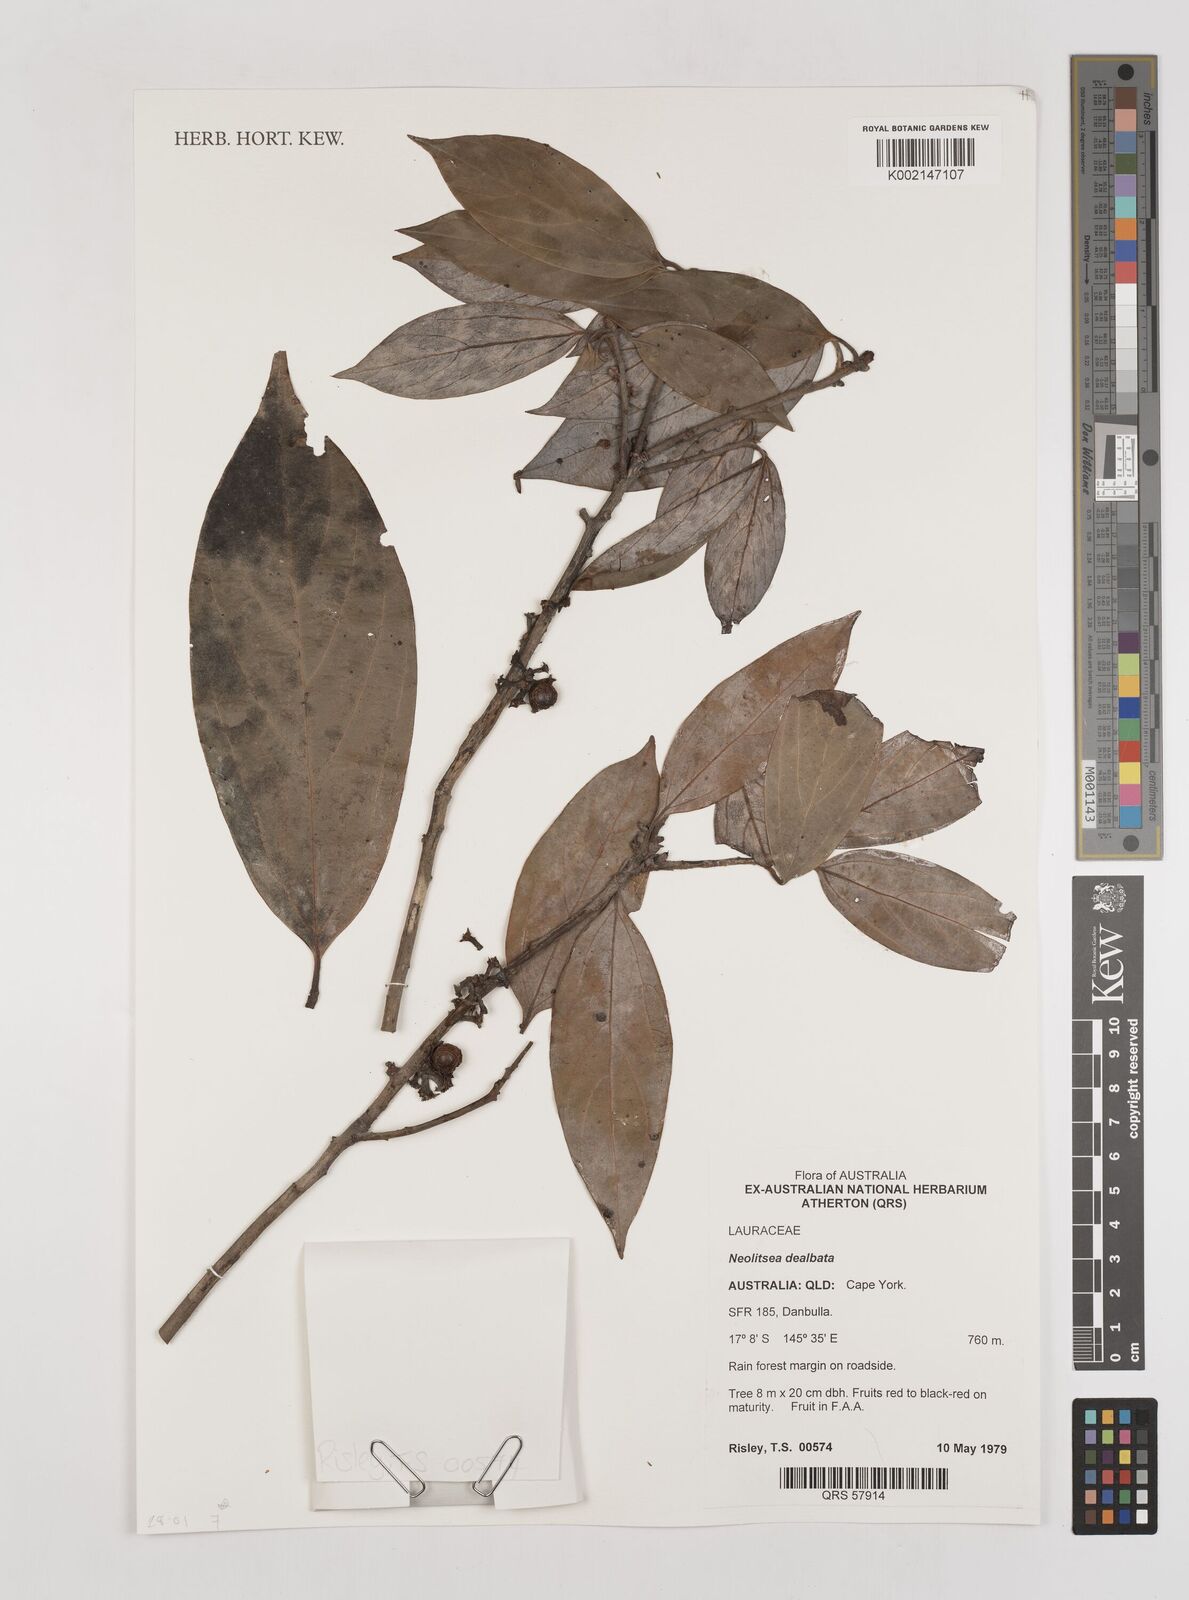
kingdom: Plantae
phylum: Tracheophyta
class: Magnoliopsida
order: Laurales
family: Lauraceae
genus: Neolitsea
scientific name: Neolitsea dealbata
